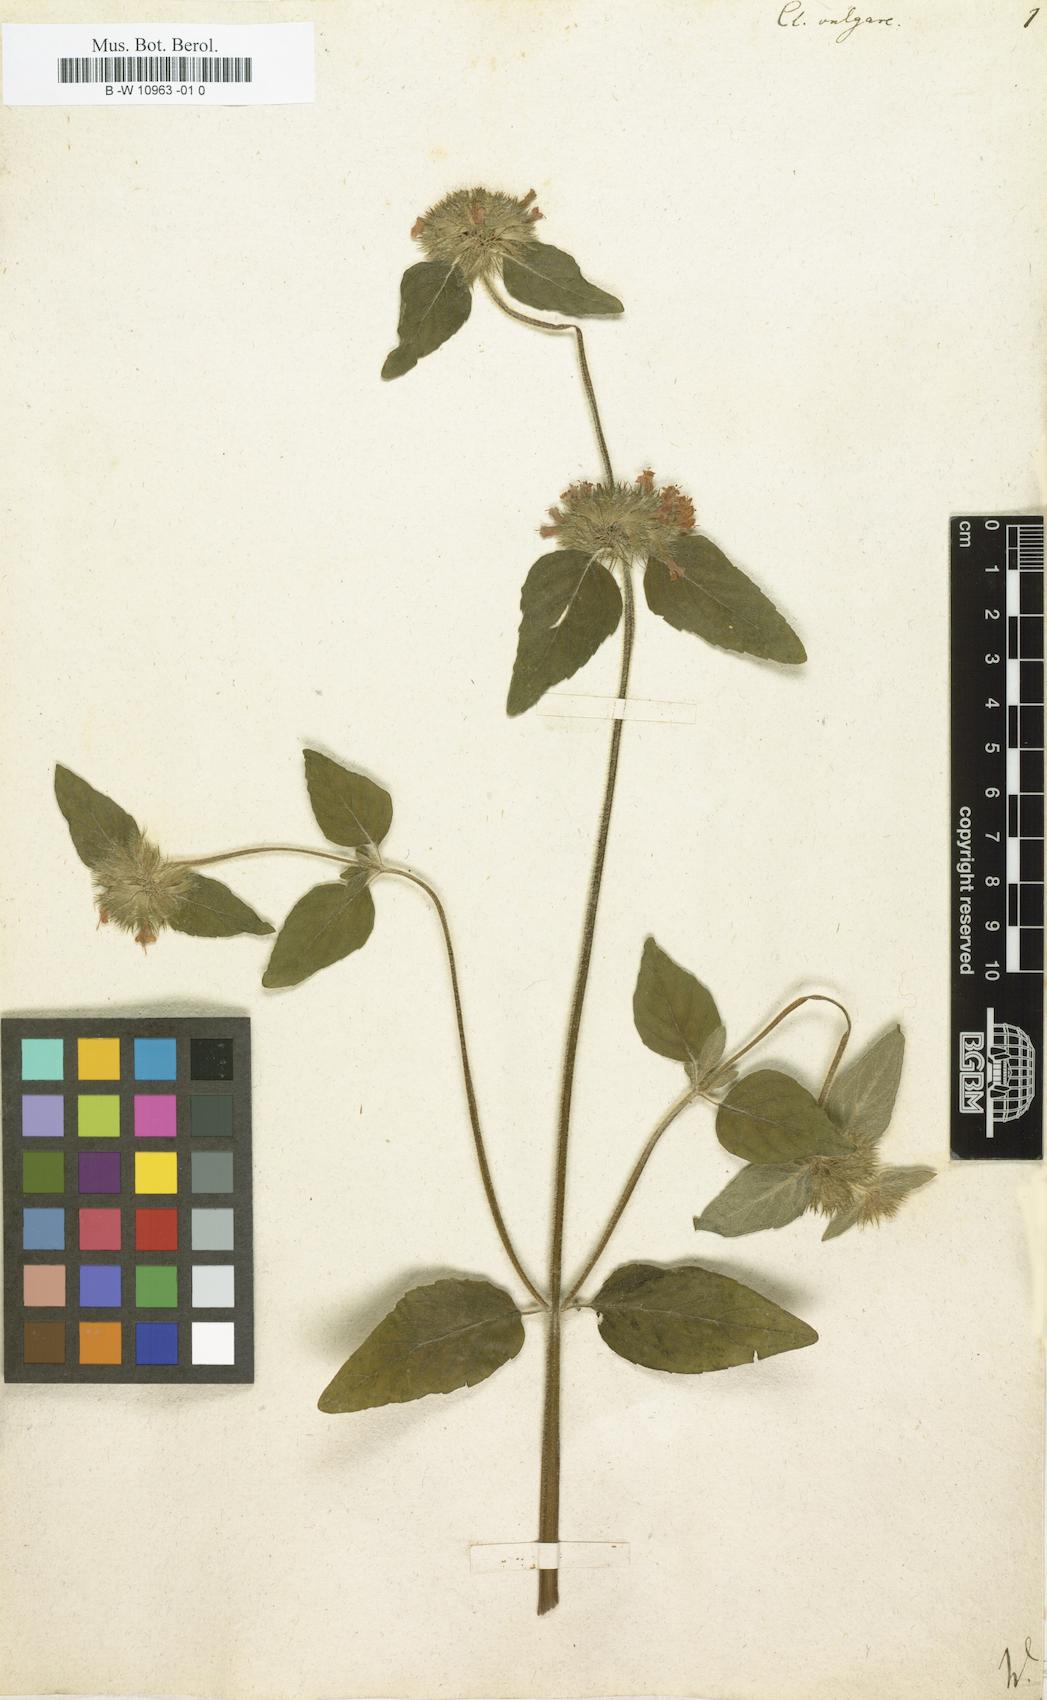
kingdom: Plantae
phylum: Tracheophyta
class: Magnoliopsida
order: Lamiales
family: Lamiaceae
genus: Clinopodium
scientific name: Clinopodium vulgare
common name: Wild basil
